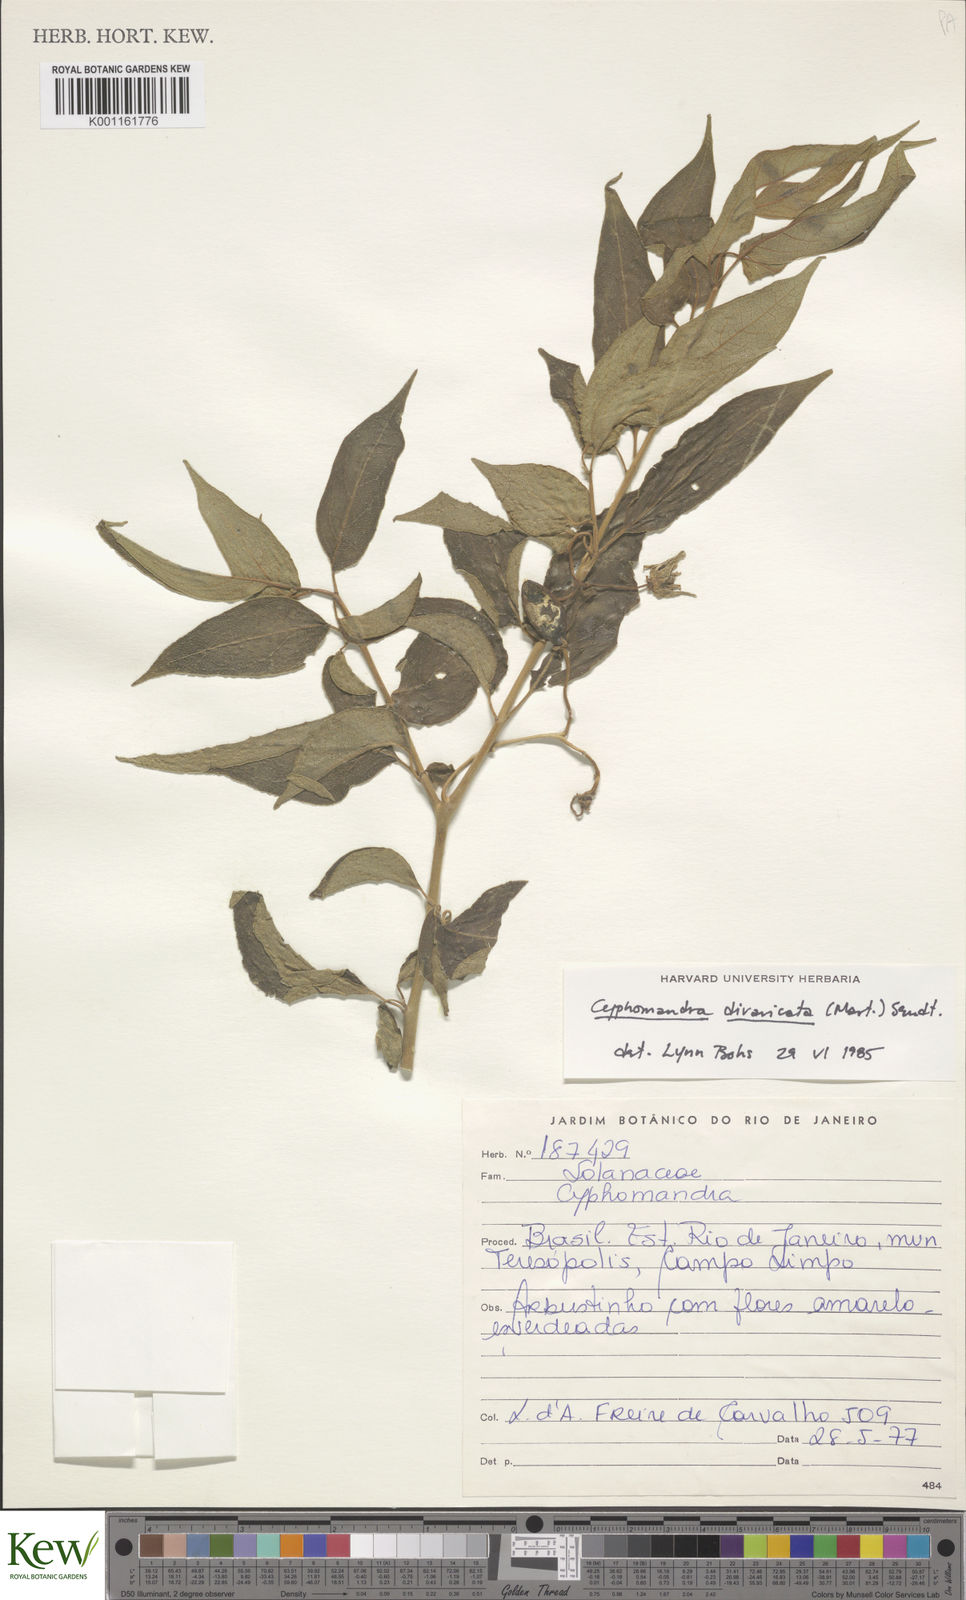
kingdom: Plantae
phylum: Tracheophyta
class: Magnoliopsida
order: Solanales
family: Solanaceae
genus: Solanum
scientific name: Solanum melissarum
